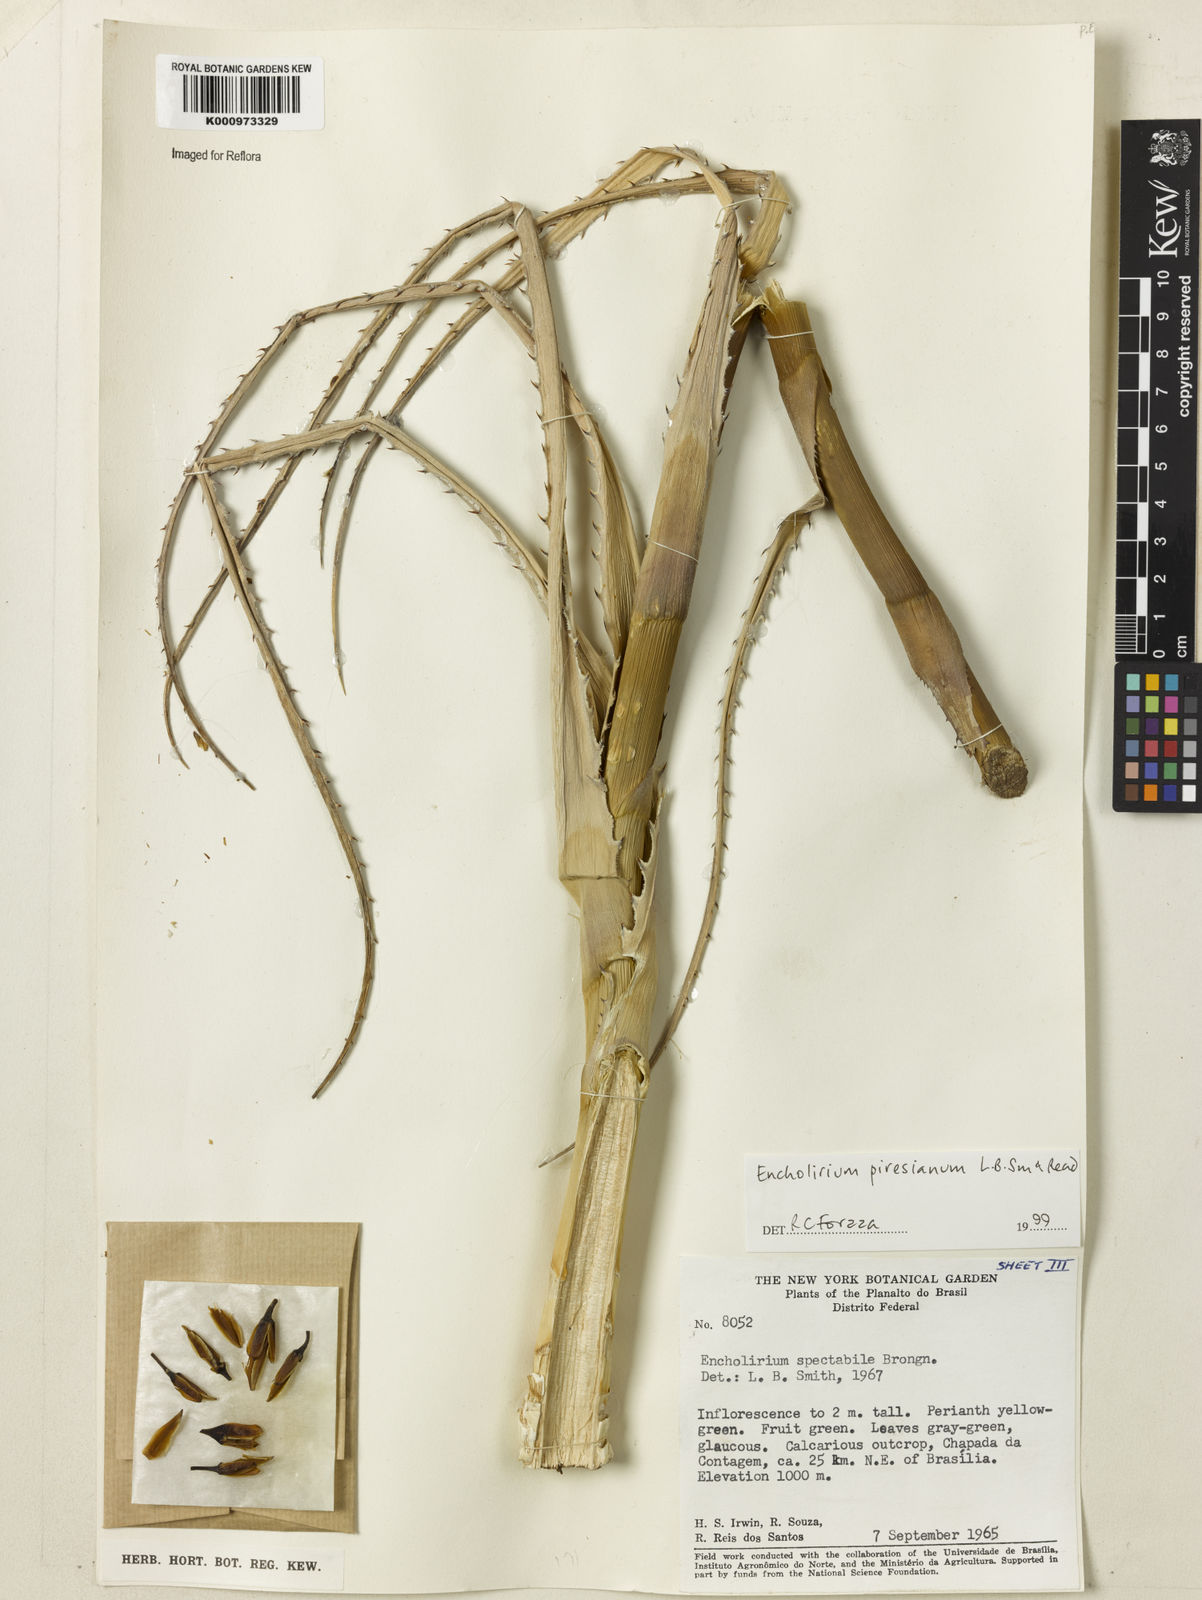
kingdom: Plantae
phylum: Tracheophyta
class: Liliopsida
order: Poales
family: Bromeliaceae
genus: Encholirium
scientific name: Encholirium luxor
